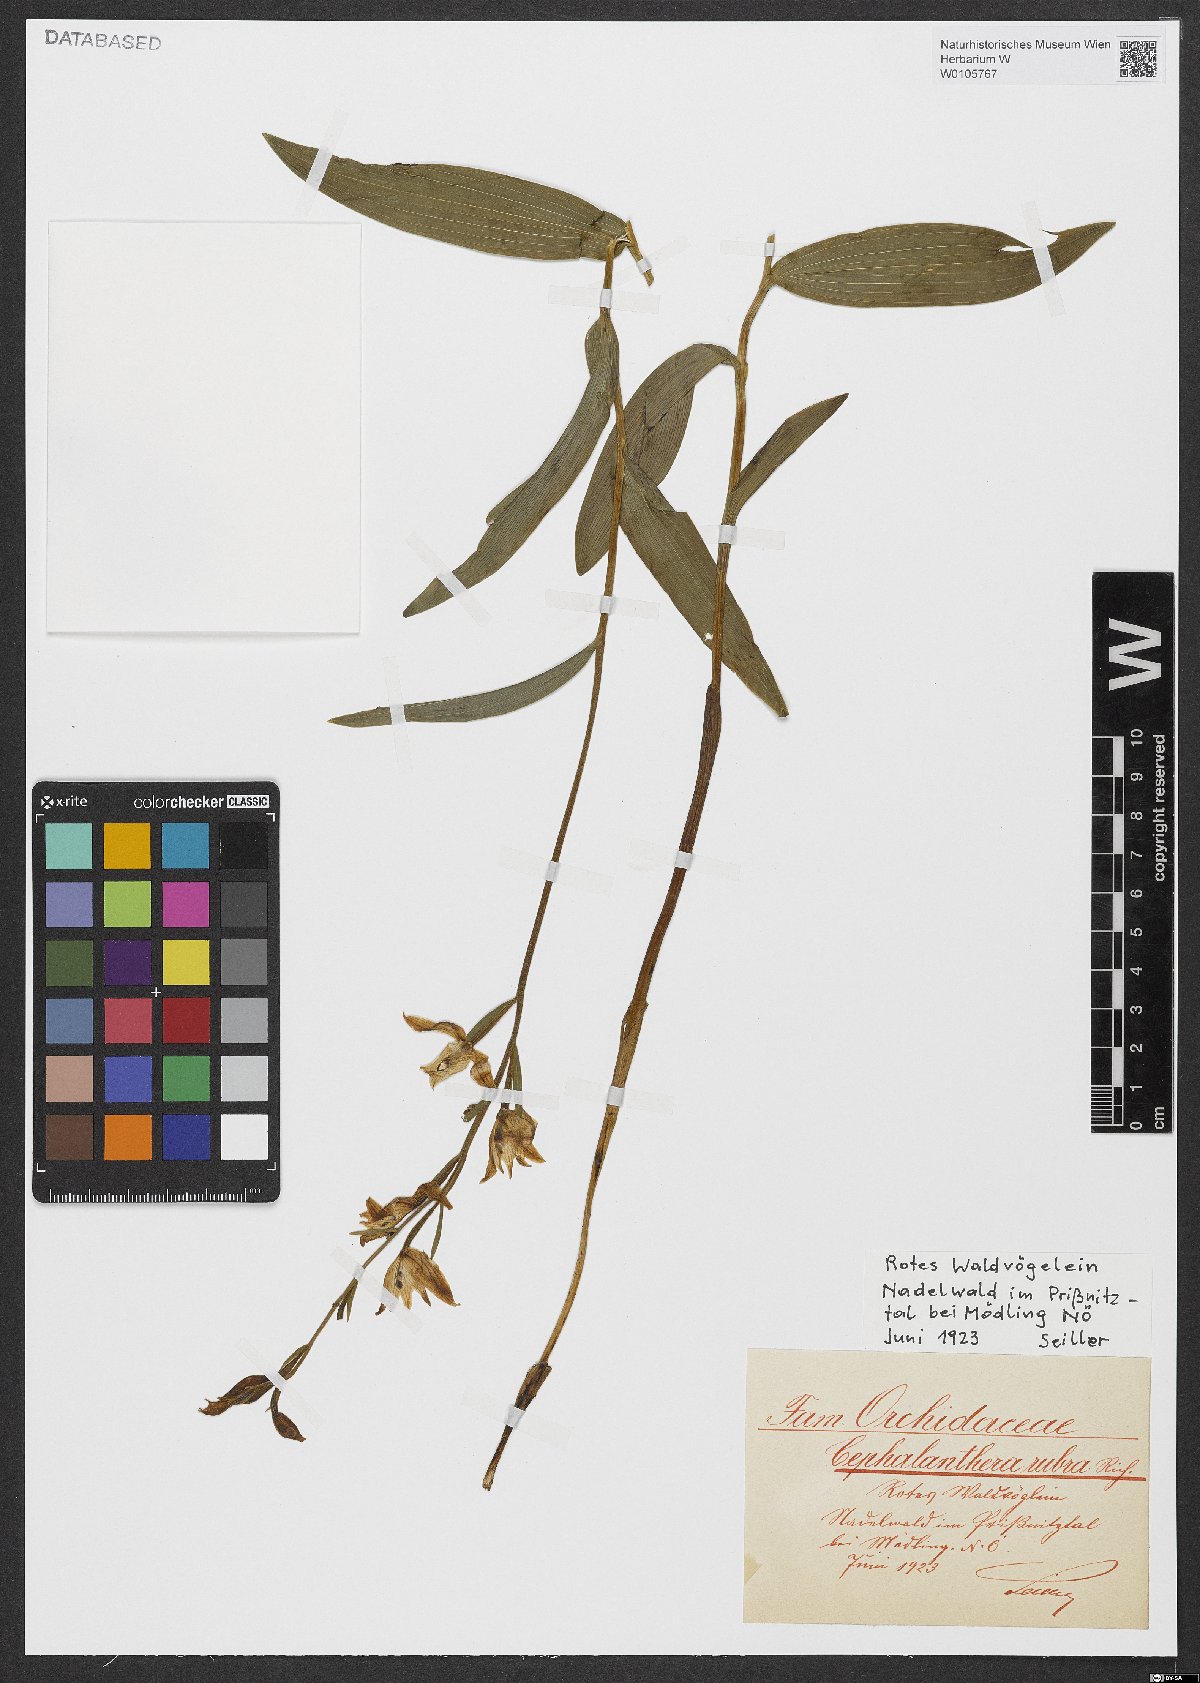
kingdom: Plantae
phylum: Tracheophyta
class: Liliopsida
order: Asparagales
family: Orchidaceae
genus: Cephalanthera
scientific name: Cephalanthera rubra
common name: Red helleborine
